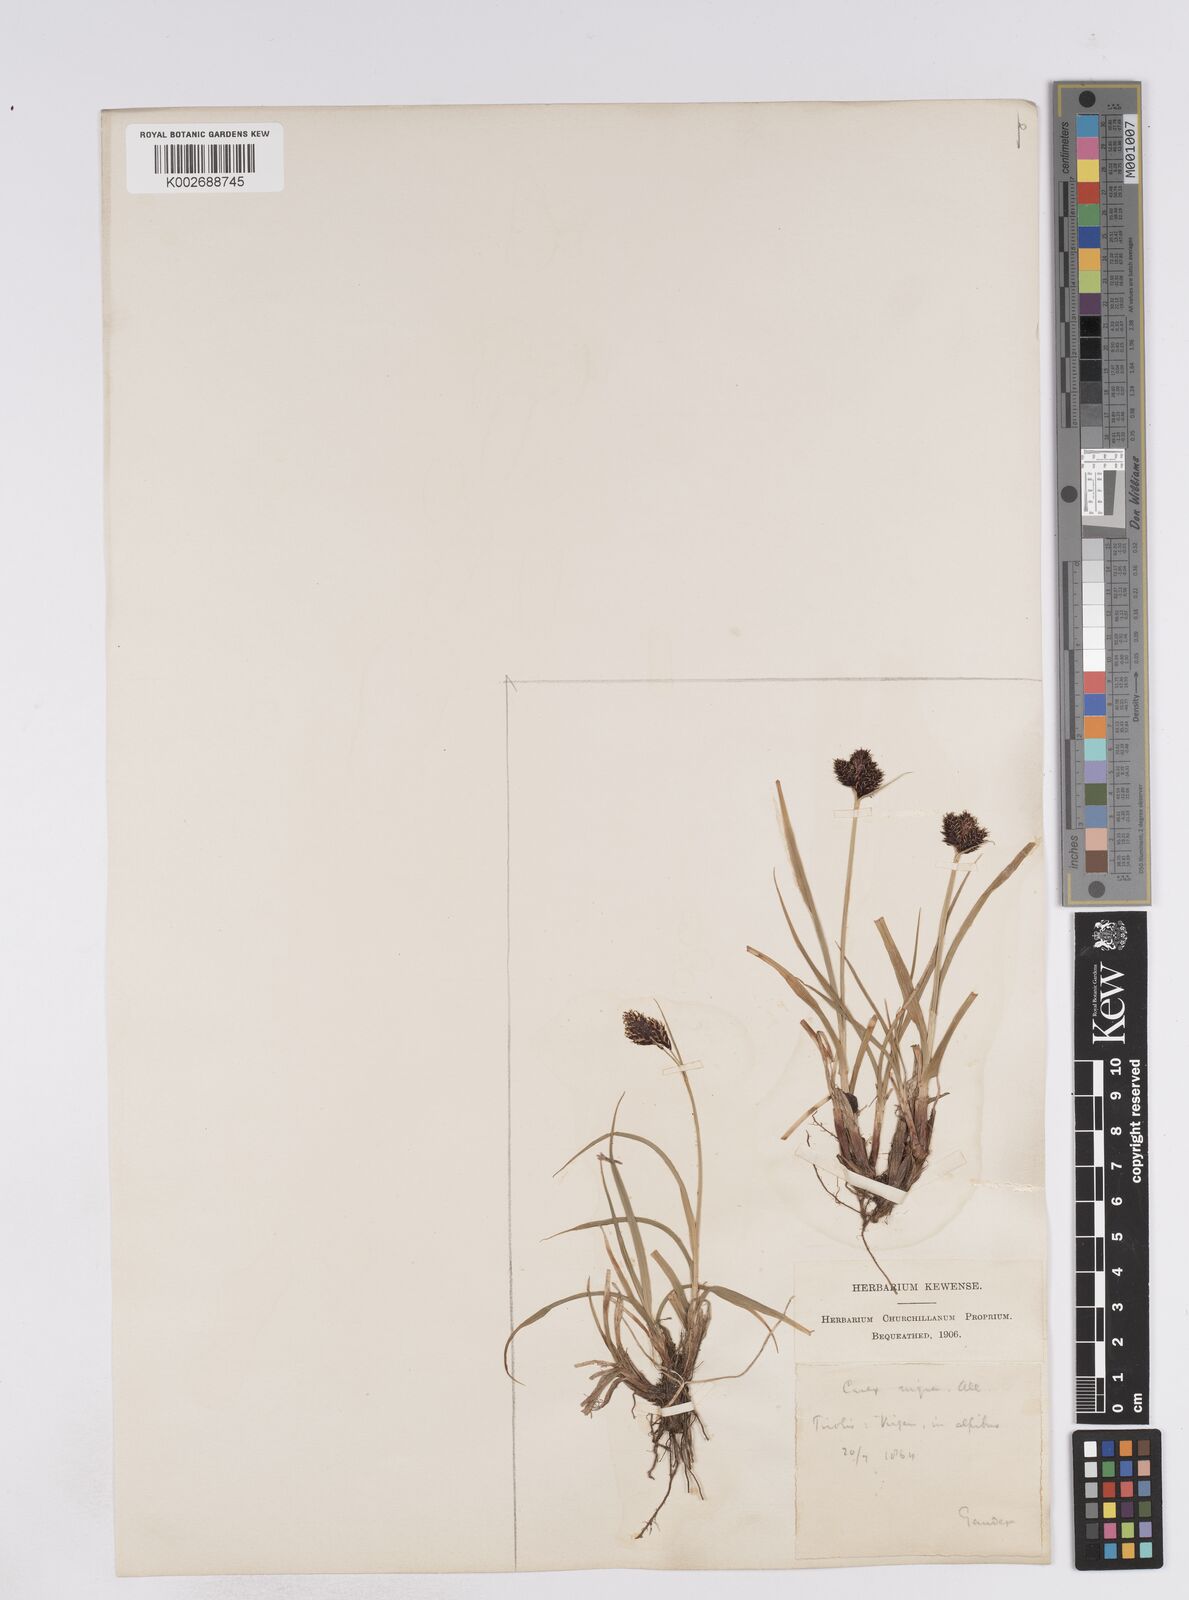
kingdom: Plantae
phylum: Tracheophyta
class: Liliopsida
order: Poales
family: Cyperaceae
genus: Carex
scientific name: Carex parviflora
